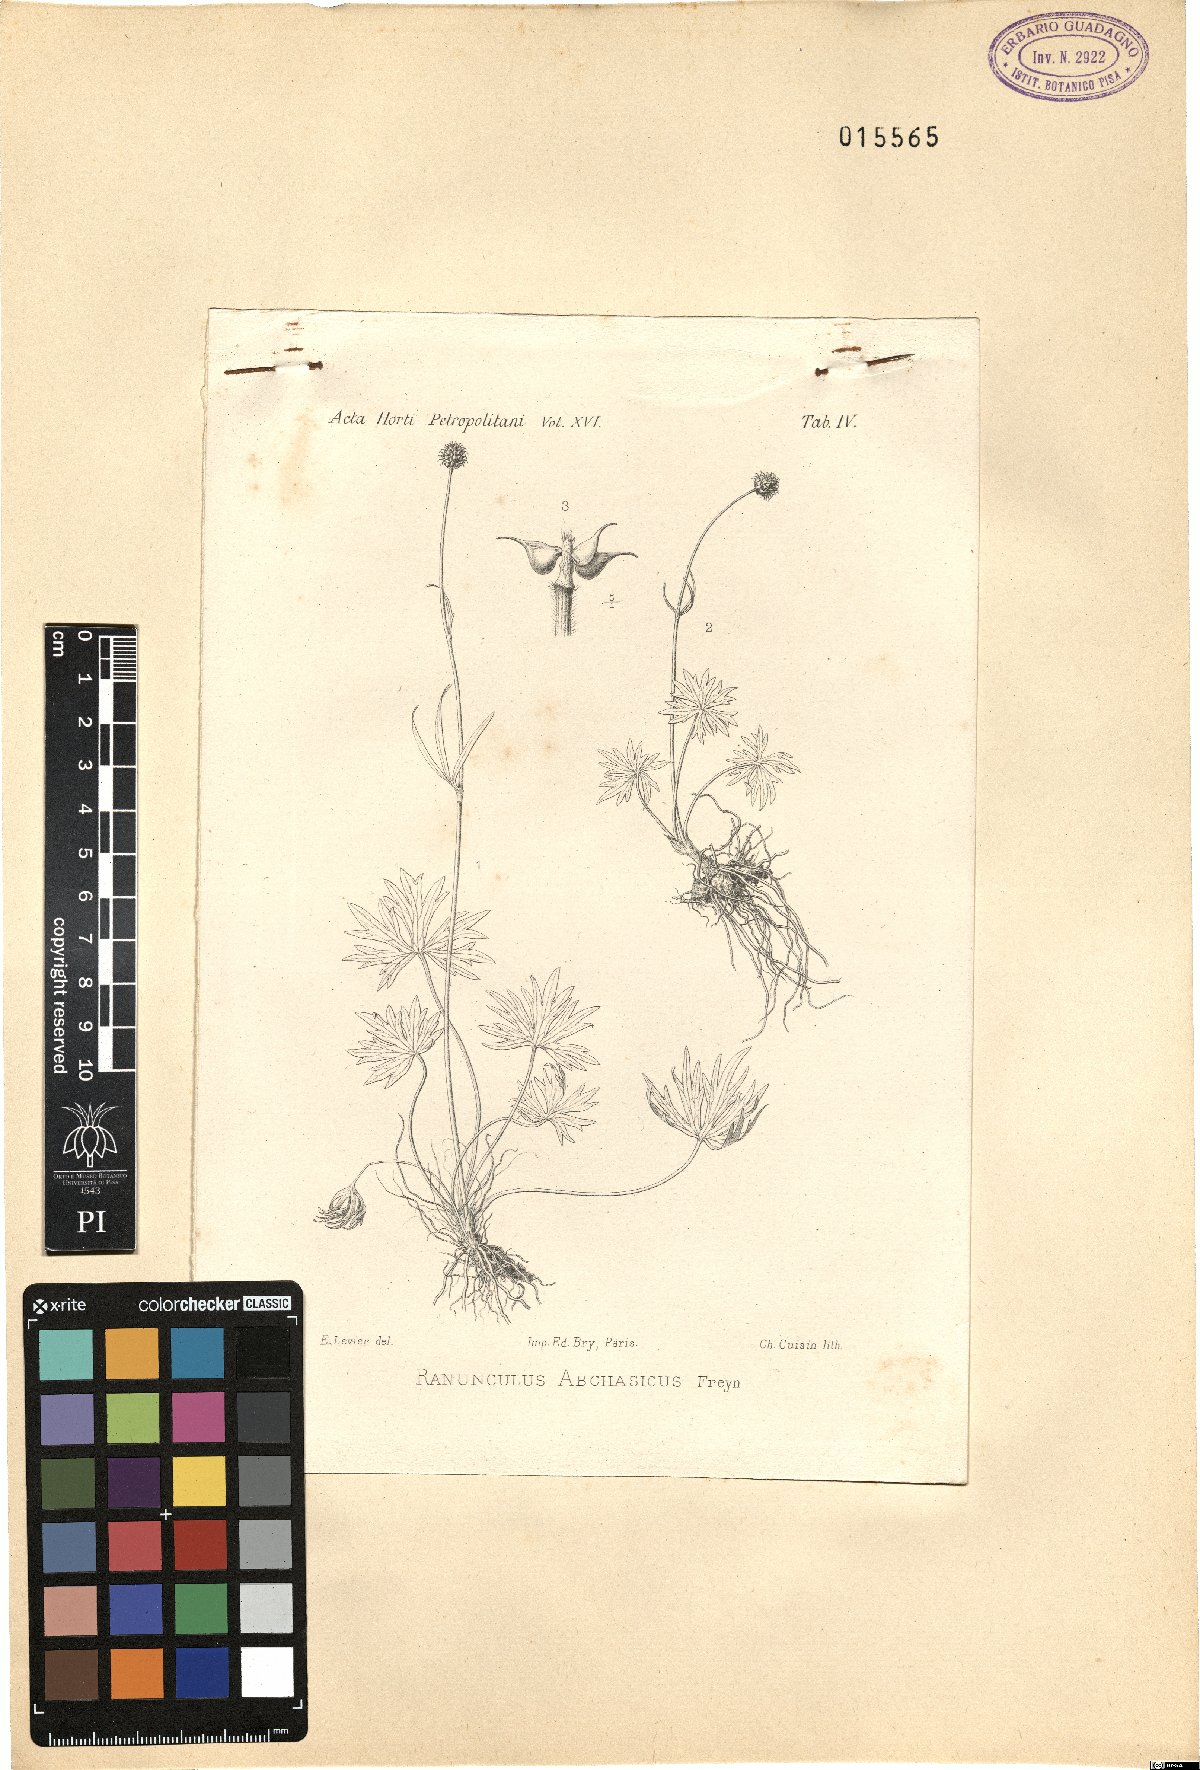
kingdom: Plantae
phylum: Tracheophyta
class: Magnoliopsida
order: Ranunculales
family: Ranunculaceae
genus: Ranunculus
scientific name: Ranunculus abchasicus
